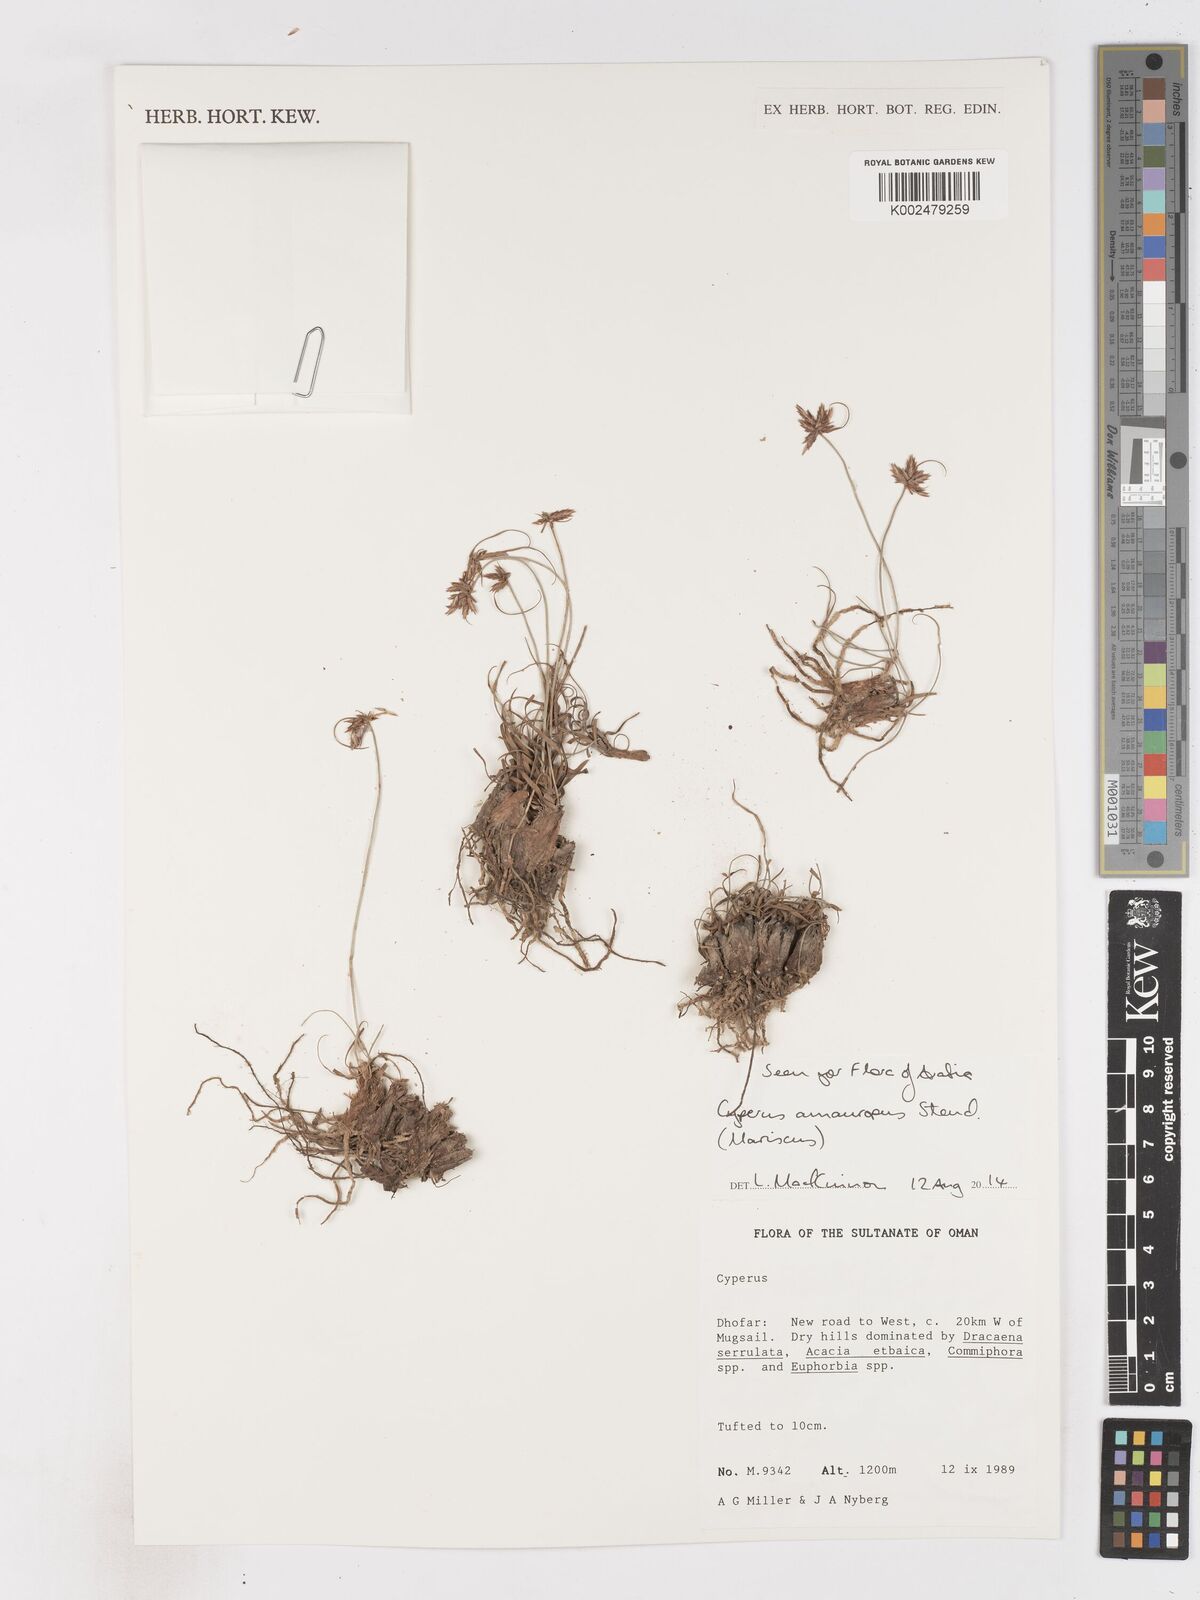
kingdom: Plantae
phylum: Tracheophyta
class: Liliopsida
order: Poales
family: Cyperaceae
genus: Cyperus
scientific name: Cyperus cyperinus
